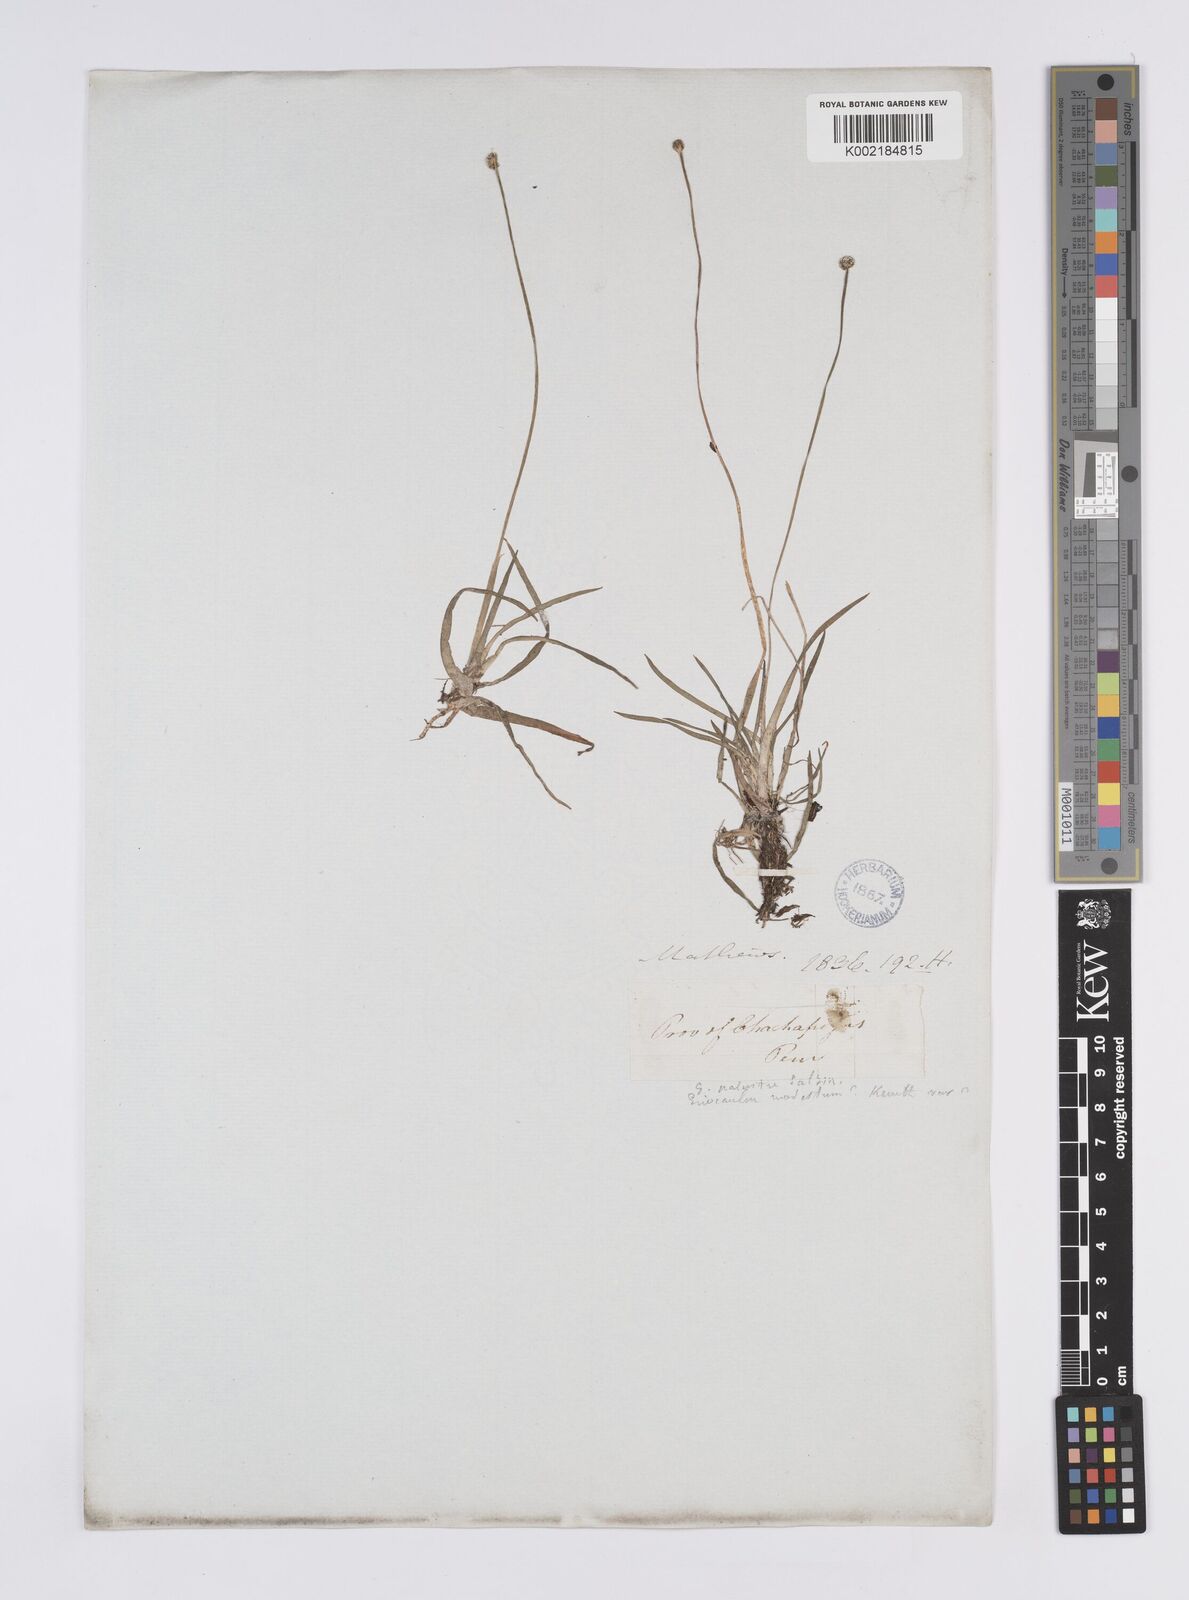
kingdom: Plantae
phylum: Tracheophyta
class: Liliopsida
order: Poales
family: Eriocaulaceae
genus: Eriocaulon
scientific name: Eriocaulon peruvianum
